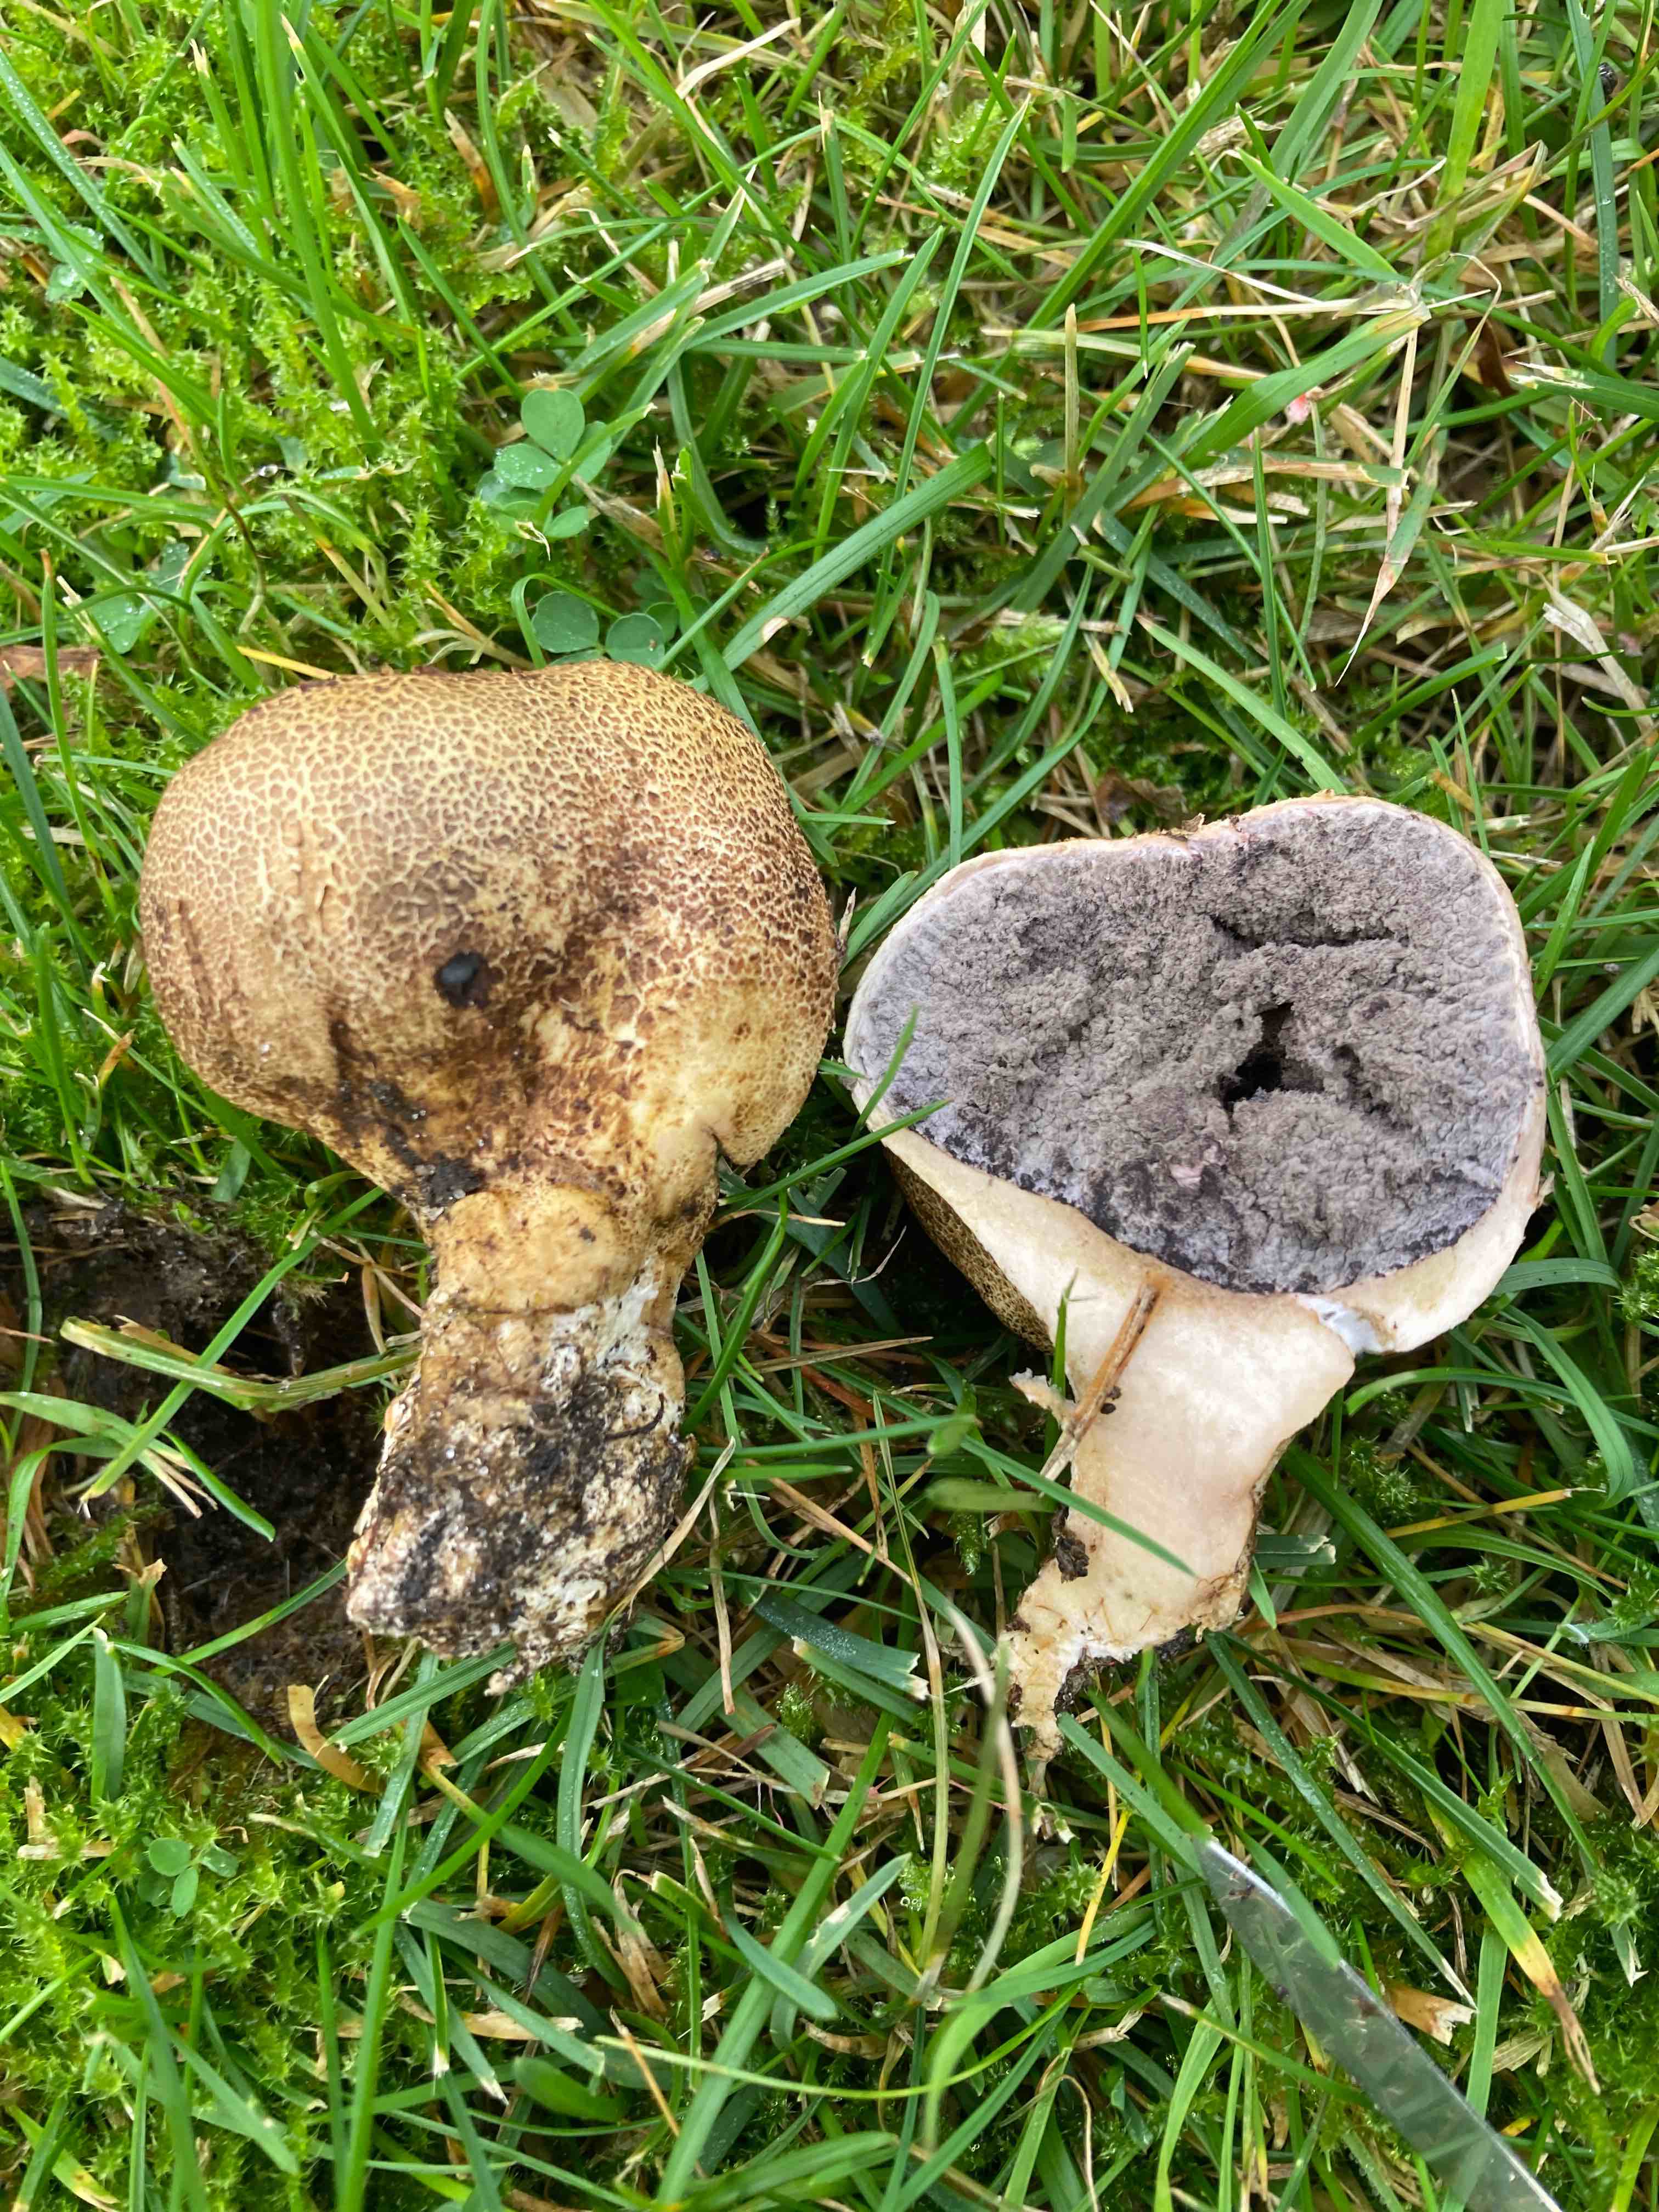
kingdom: Fungi
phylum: Basidiomycota
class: Agaricomycetes
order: Boletales
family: Sclerodermataceae
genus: Scleroderma
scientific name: Scleroderma verrucosum
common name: stilket bruskbold
